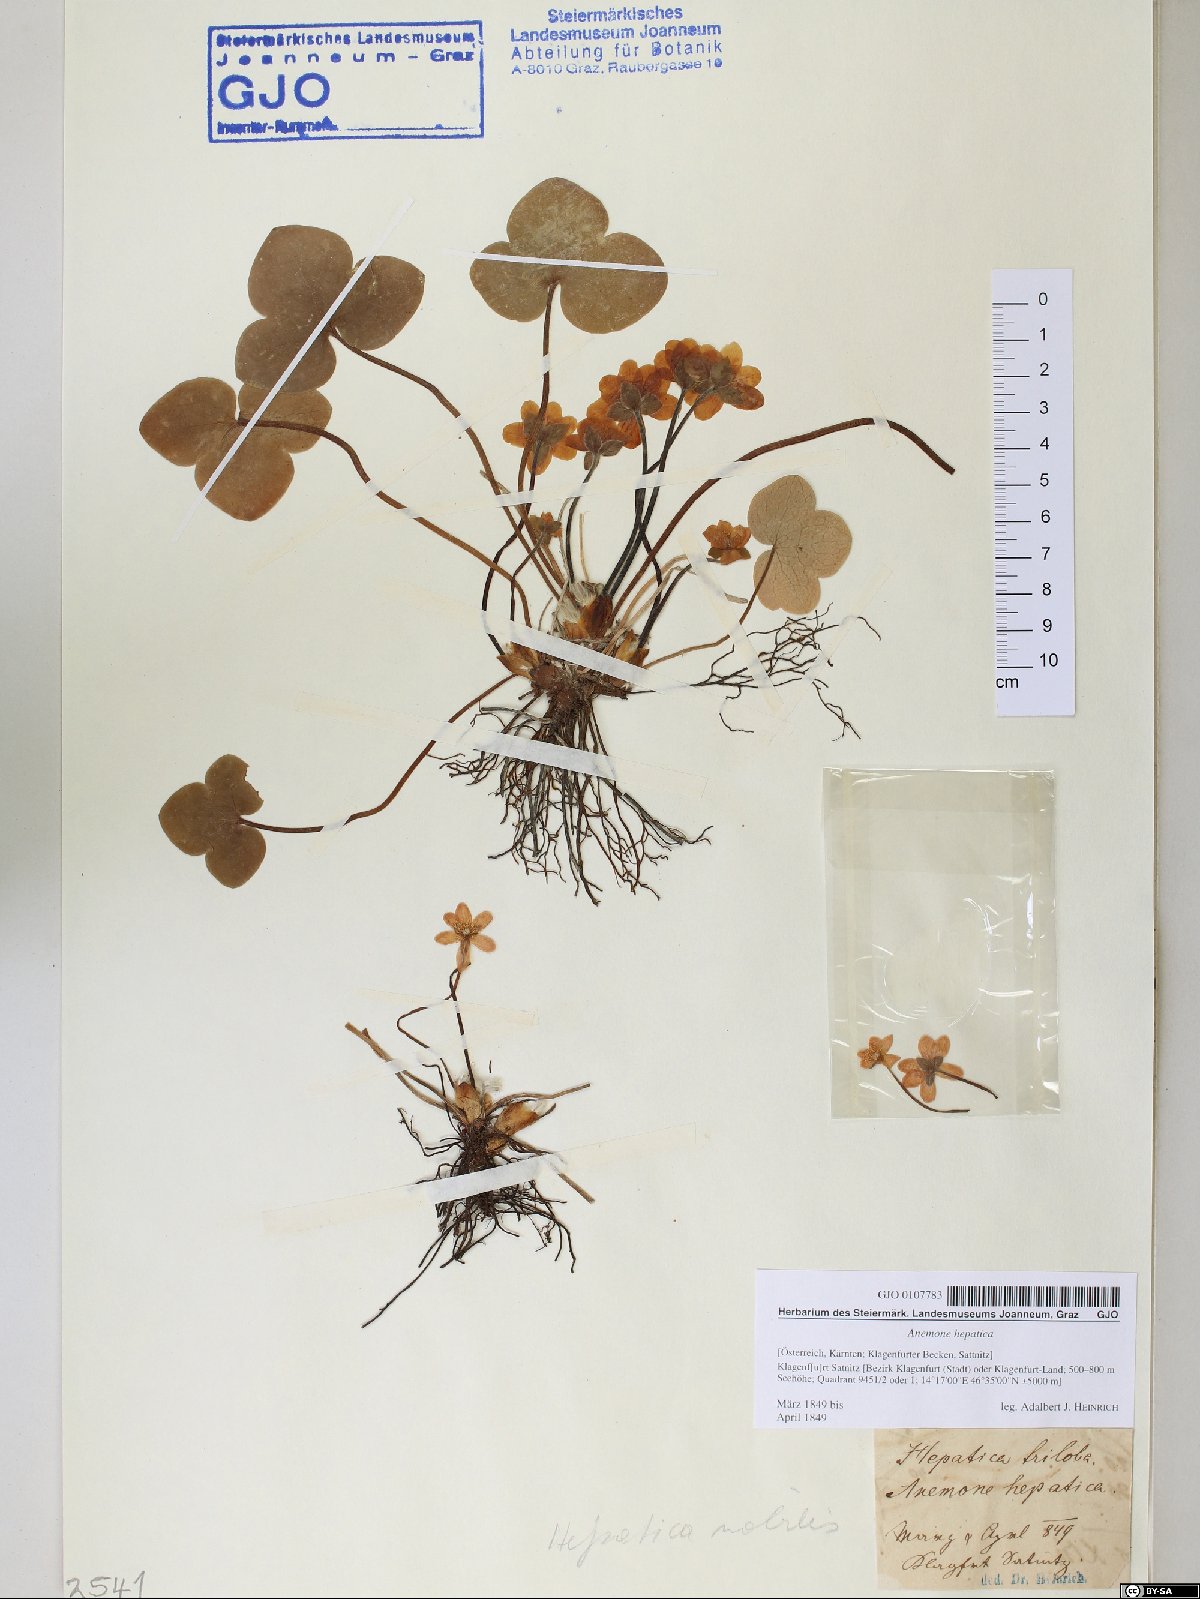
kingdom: Plantae
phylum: Tracheophyta
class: Magnoliopsida
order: Ranunculales
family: Ranunculaceae
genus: Hepatica
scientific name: Hepatica nobilis
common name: Liverleaf
